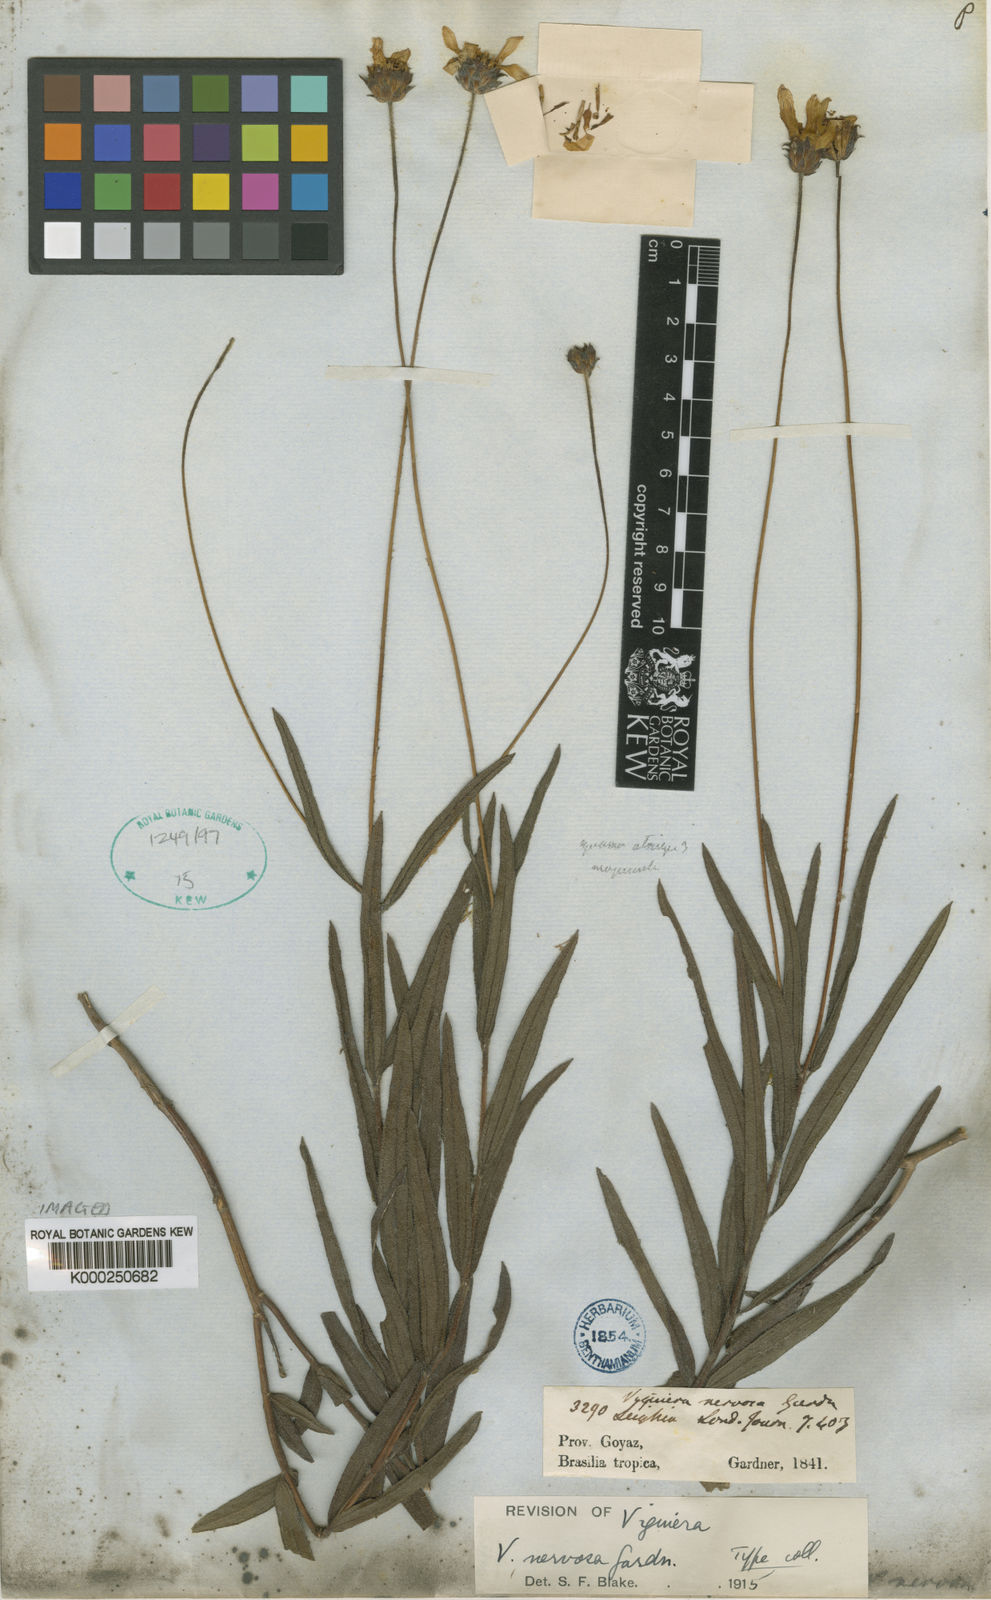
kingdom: Plantae
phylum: Tracheophyta
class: Magnoliopsida
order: Asterales
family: Asteraceae
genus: Aldama
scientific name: Aldama nervosa
